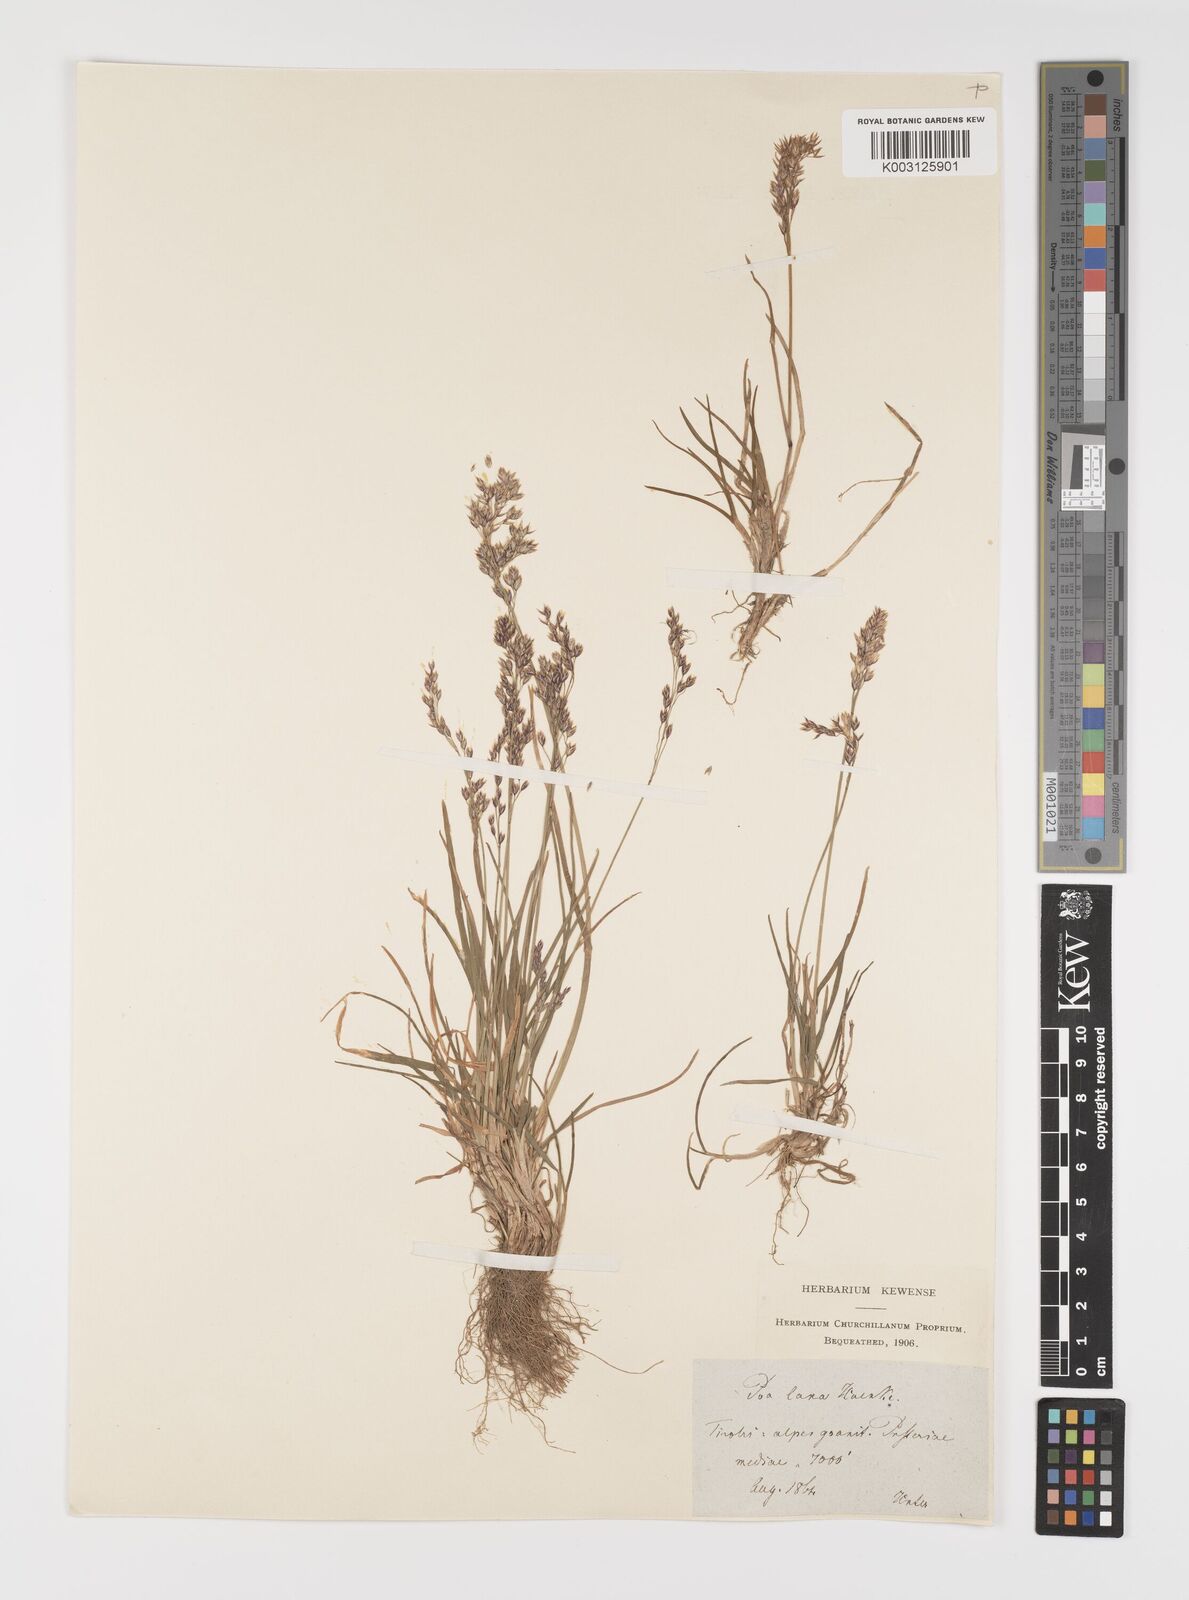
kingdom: Plantae
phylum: Tracheophyta
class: Liliopsida
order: Poales
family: Poaceae
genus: Poa
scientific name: Poa laxa
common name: Lax bluegrass
